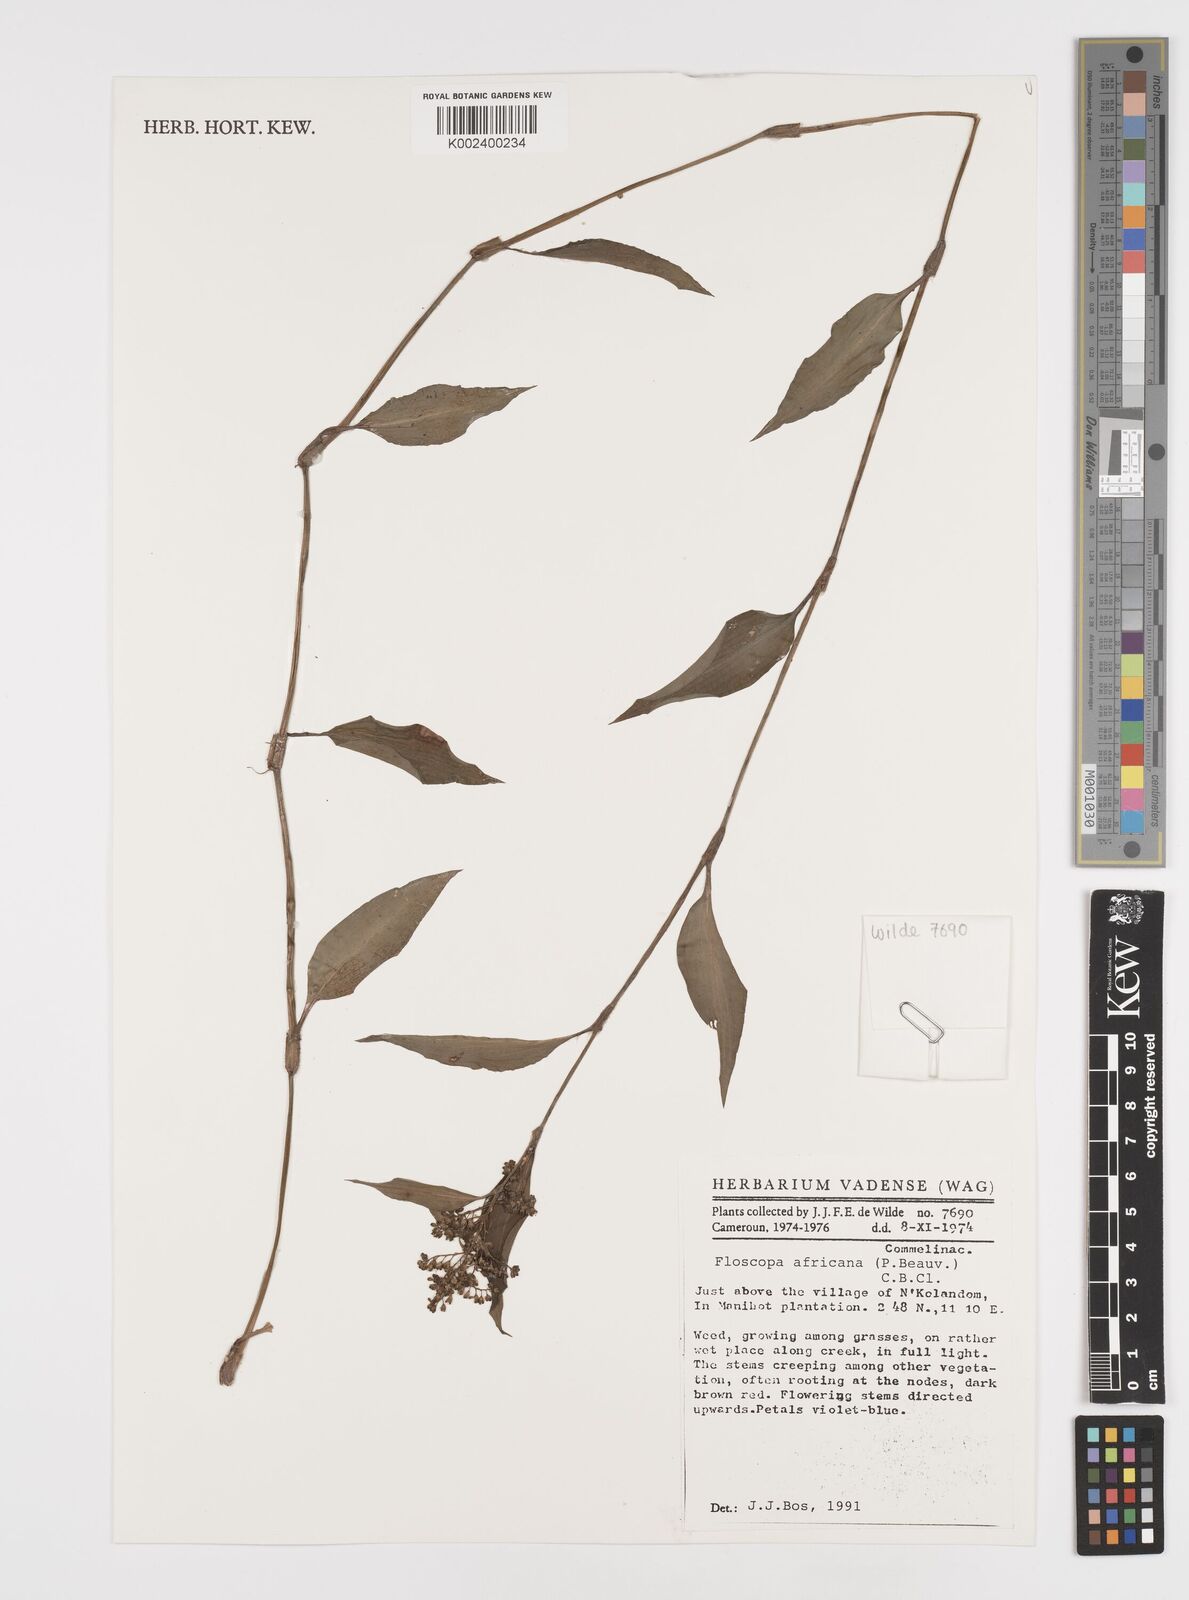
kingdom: Plantae
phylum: Tracheophyta
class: Liliopsida
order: Commelinales
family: Commelinaceae
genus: Floscopa
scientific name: Floscopa africana
